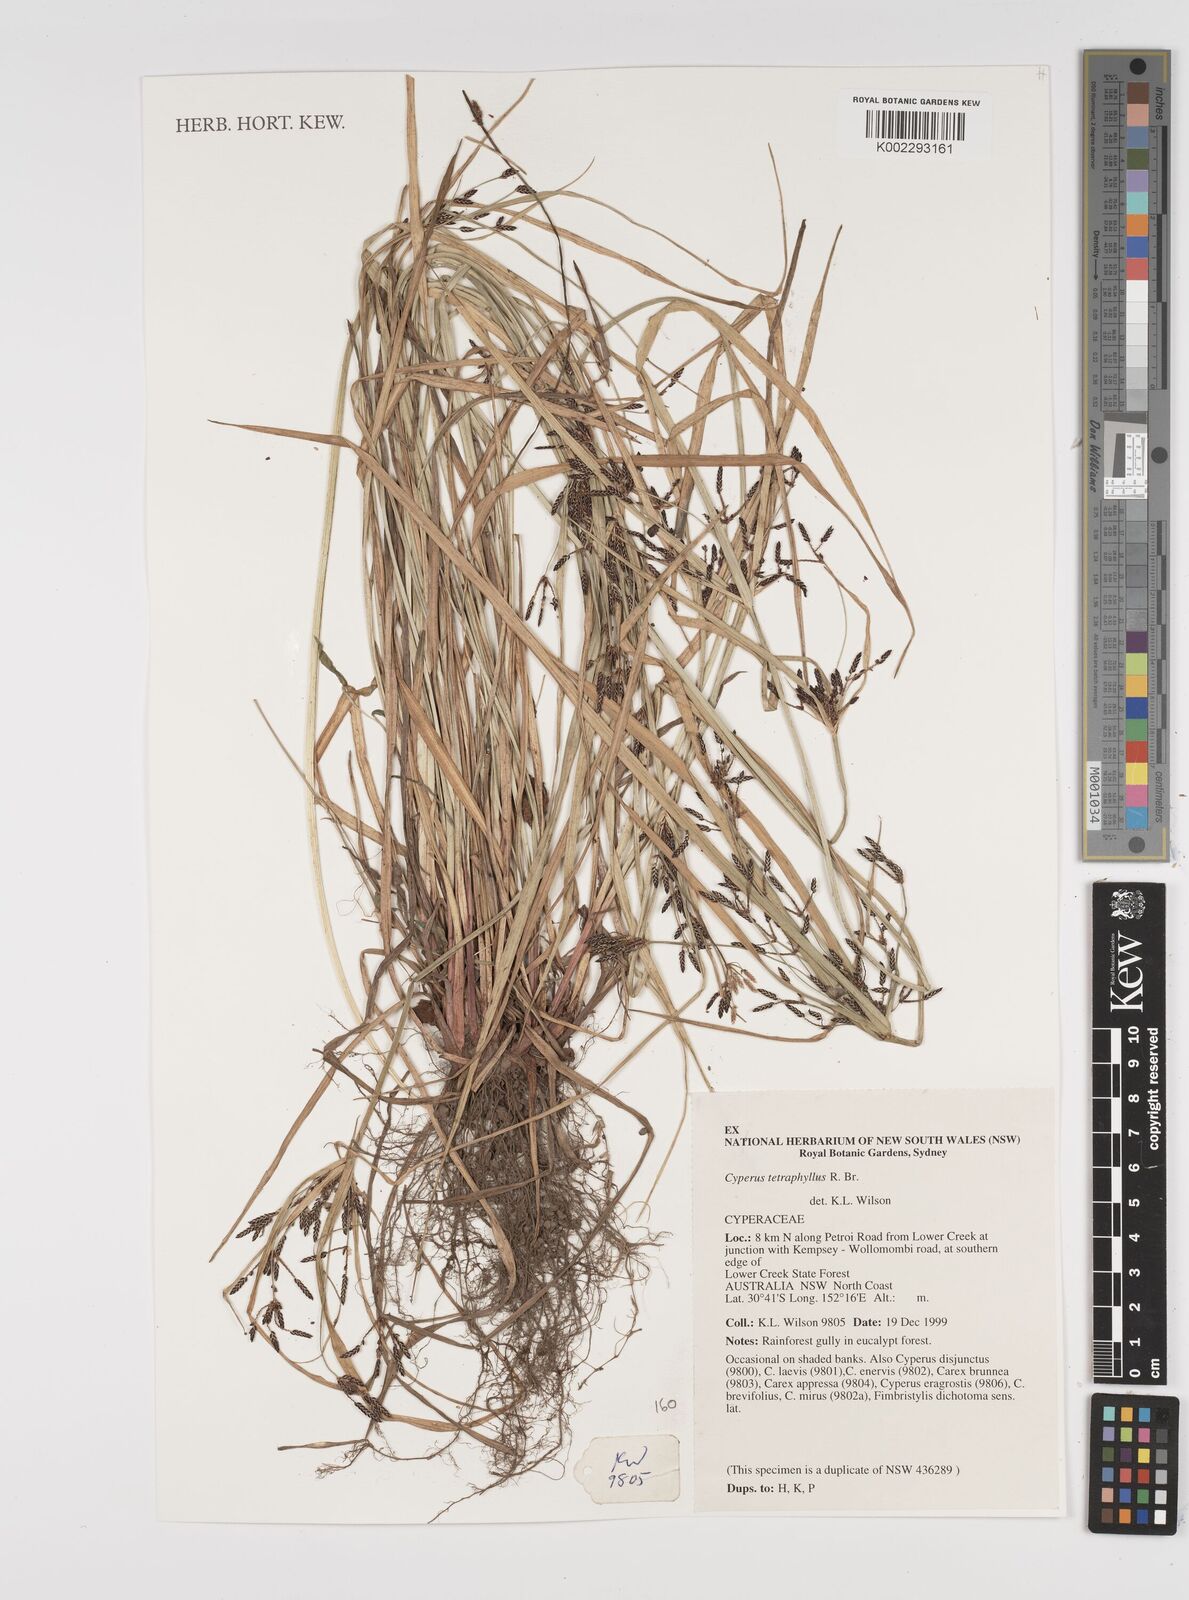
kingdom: Plantae
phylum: Tracheophyta
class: Liliopsida
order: Poales
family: Cyperaceae
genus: Cyperus
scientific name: Cyperus tetraphyllus
